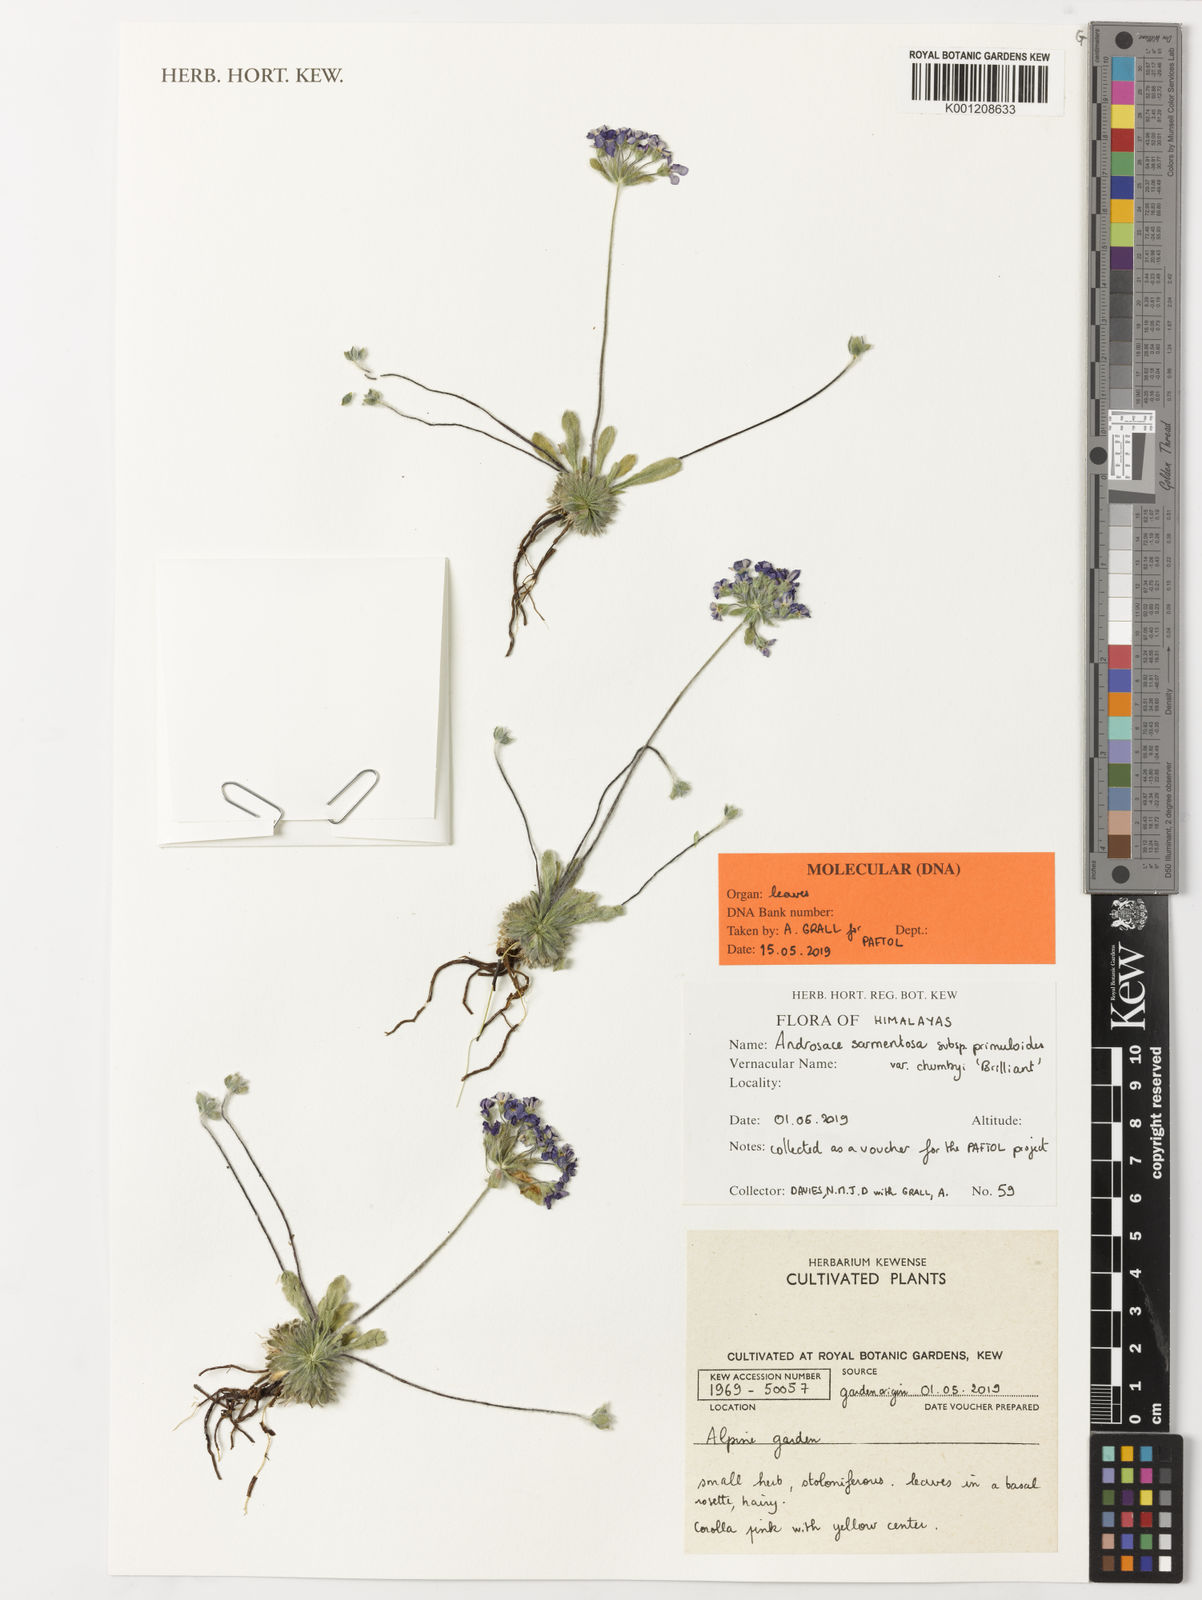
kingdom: Plantae
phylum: Tracheophyta
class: Magnoliopsida
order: Ericales
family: Primulaceae
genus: Androsace
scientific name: Androsace sarmentosa
